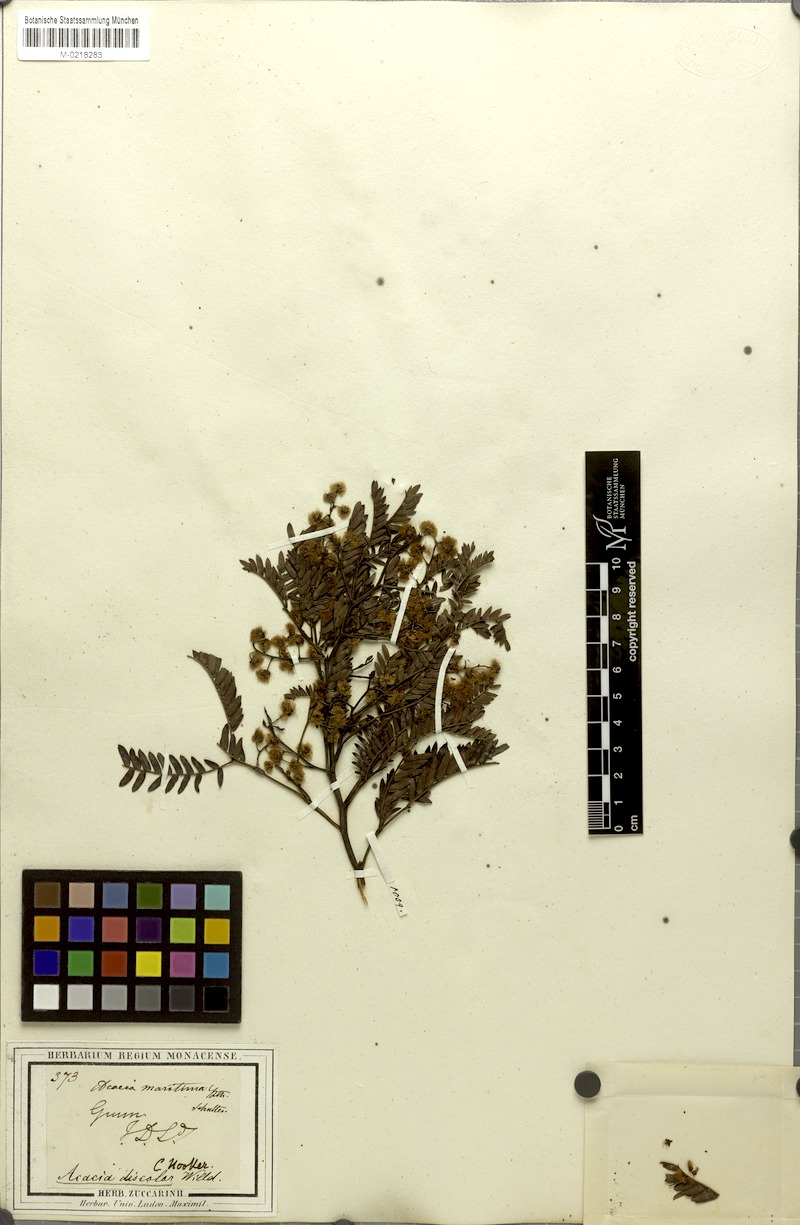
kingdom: Plantae
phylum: Tracheophyta
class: Magnoliopsida
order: Fabales
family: Fabaceae
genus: Acacia
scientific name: Acacia terminalis
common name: Cedar wattle
